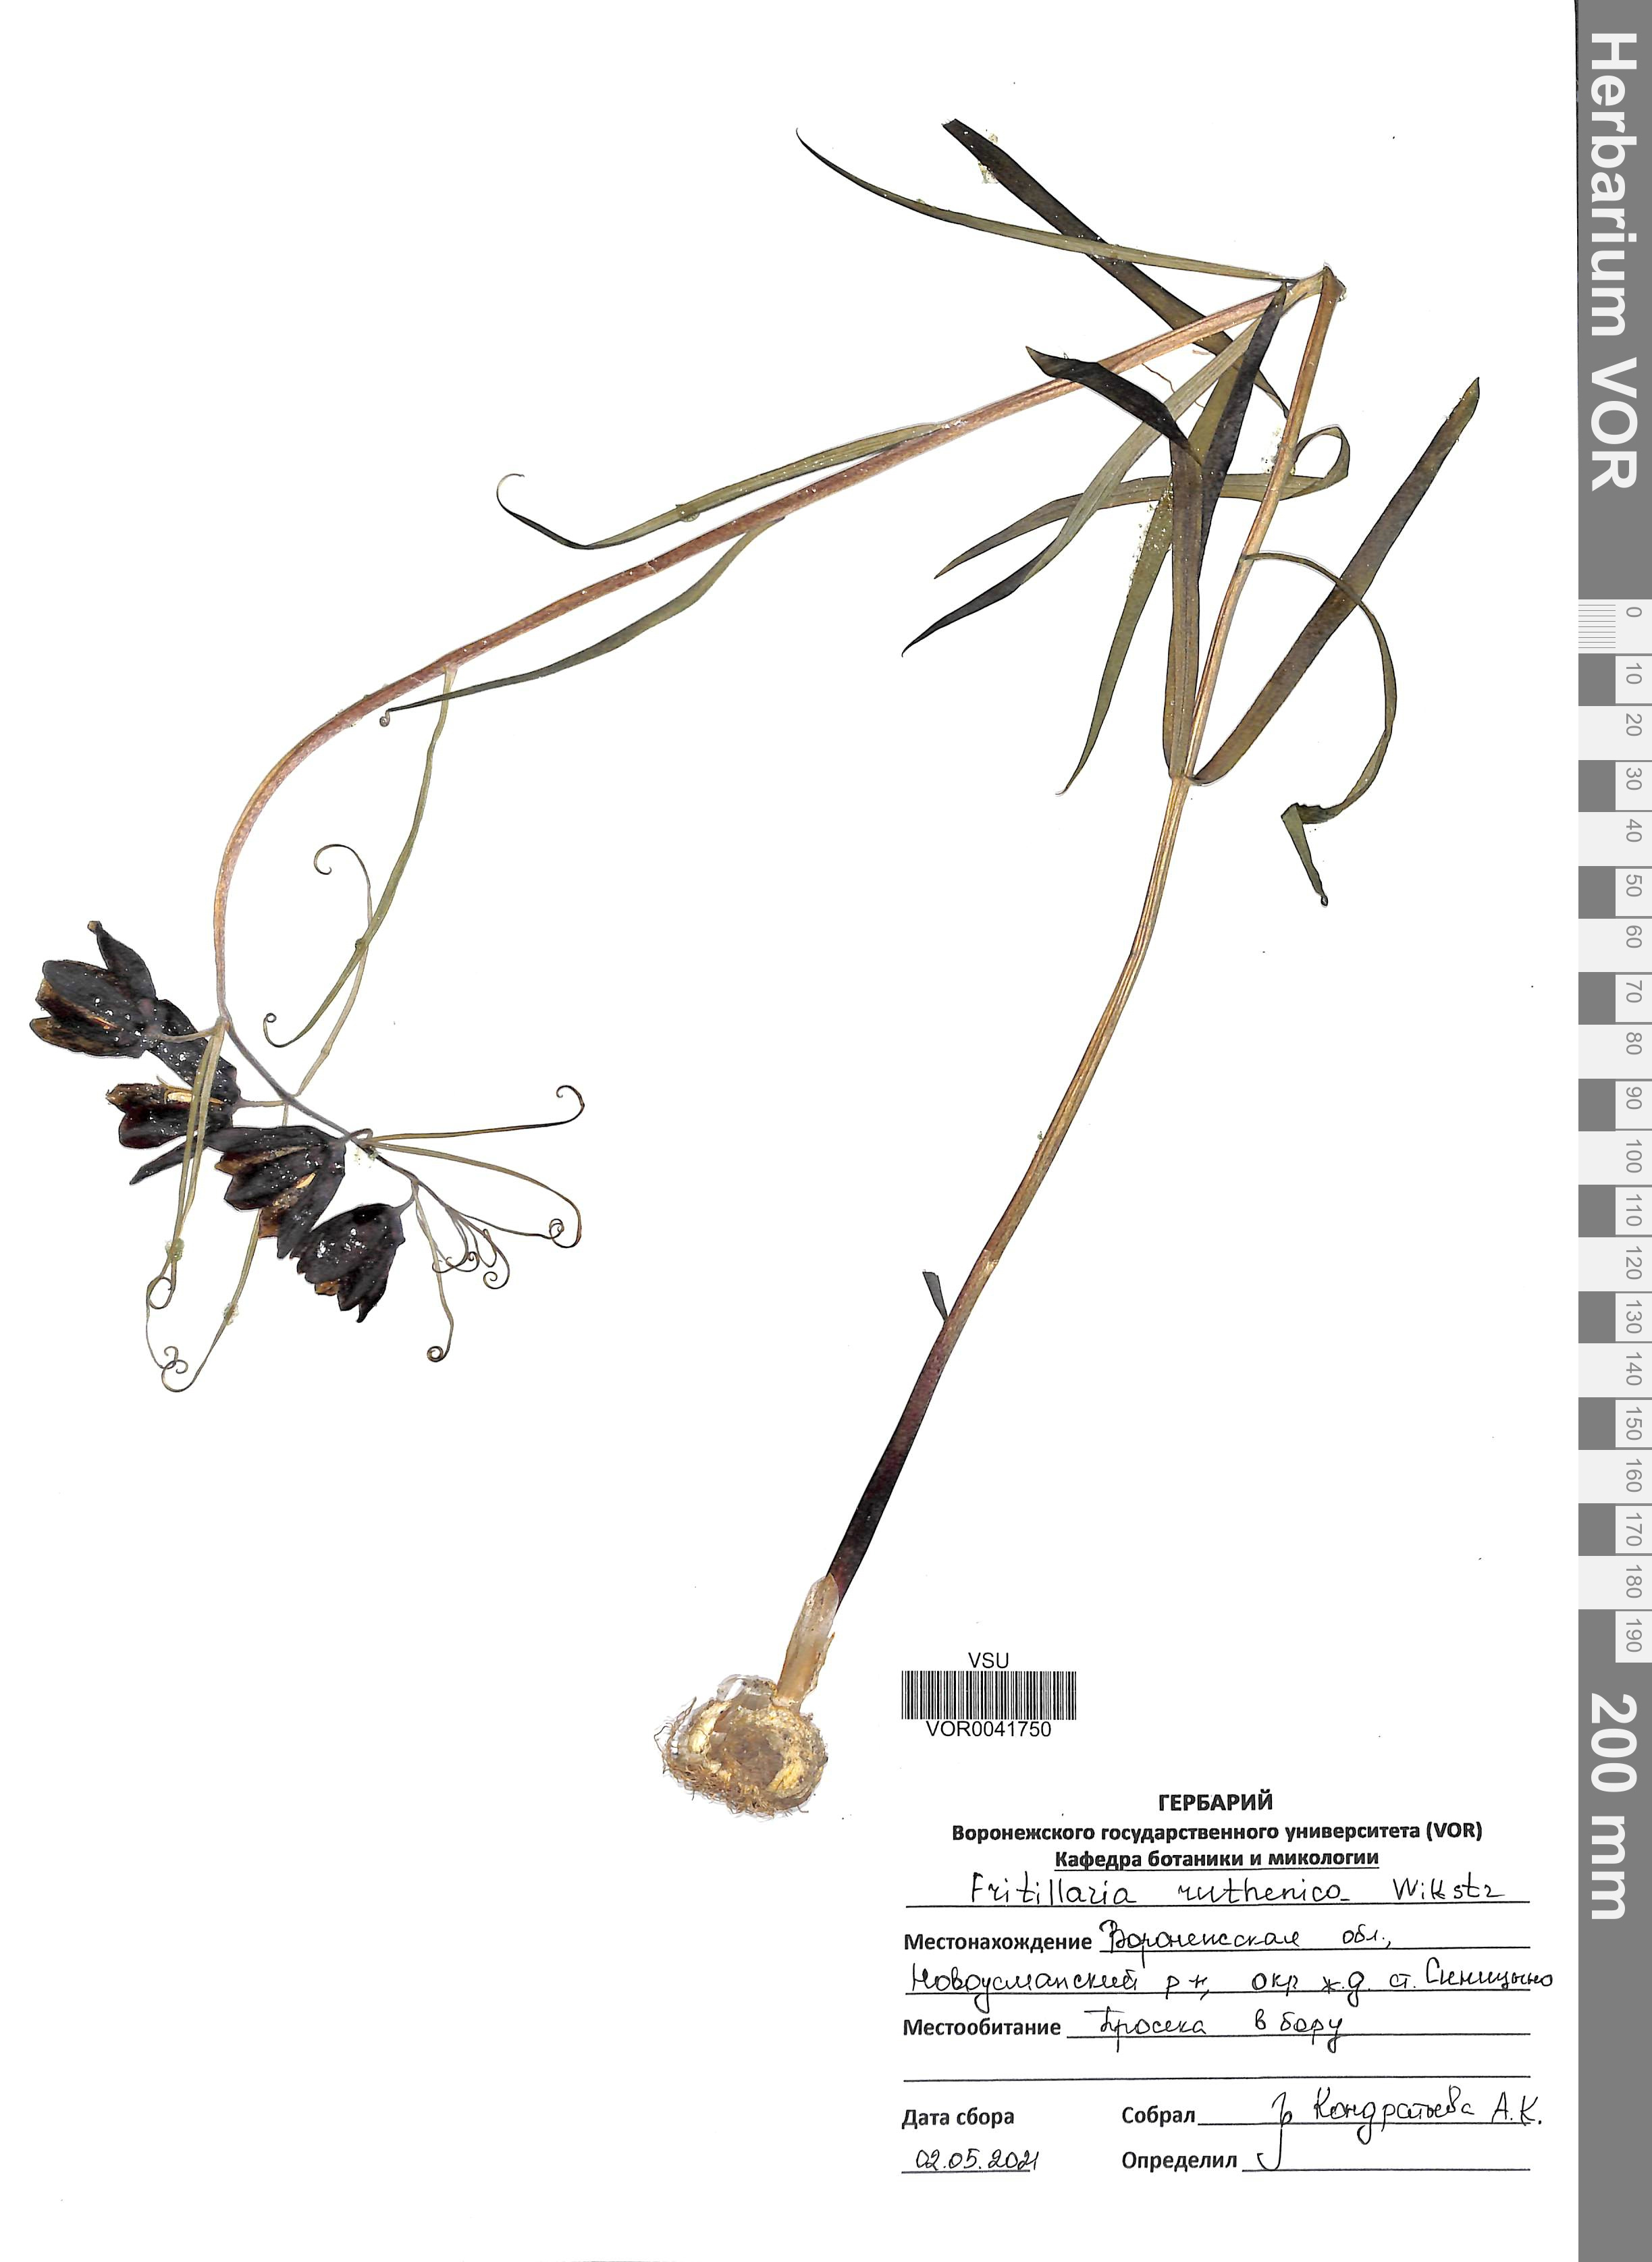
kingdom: Plantae
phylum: Tracheophyta
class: Liliopsida
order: Liliales
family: Liliaceae
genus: Fritillaria
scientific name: Fritillaria ruthenica
